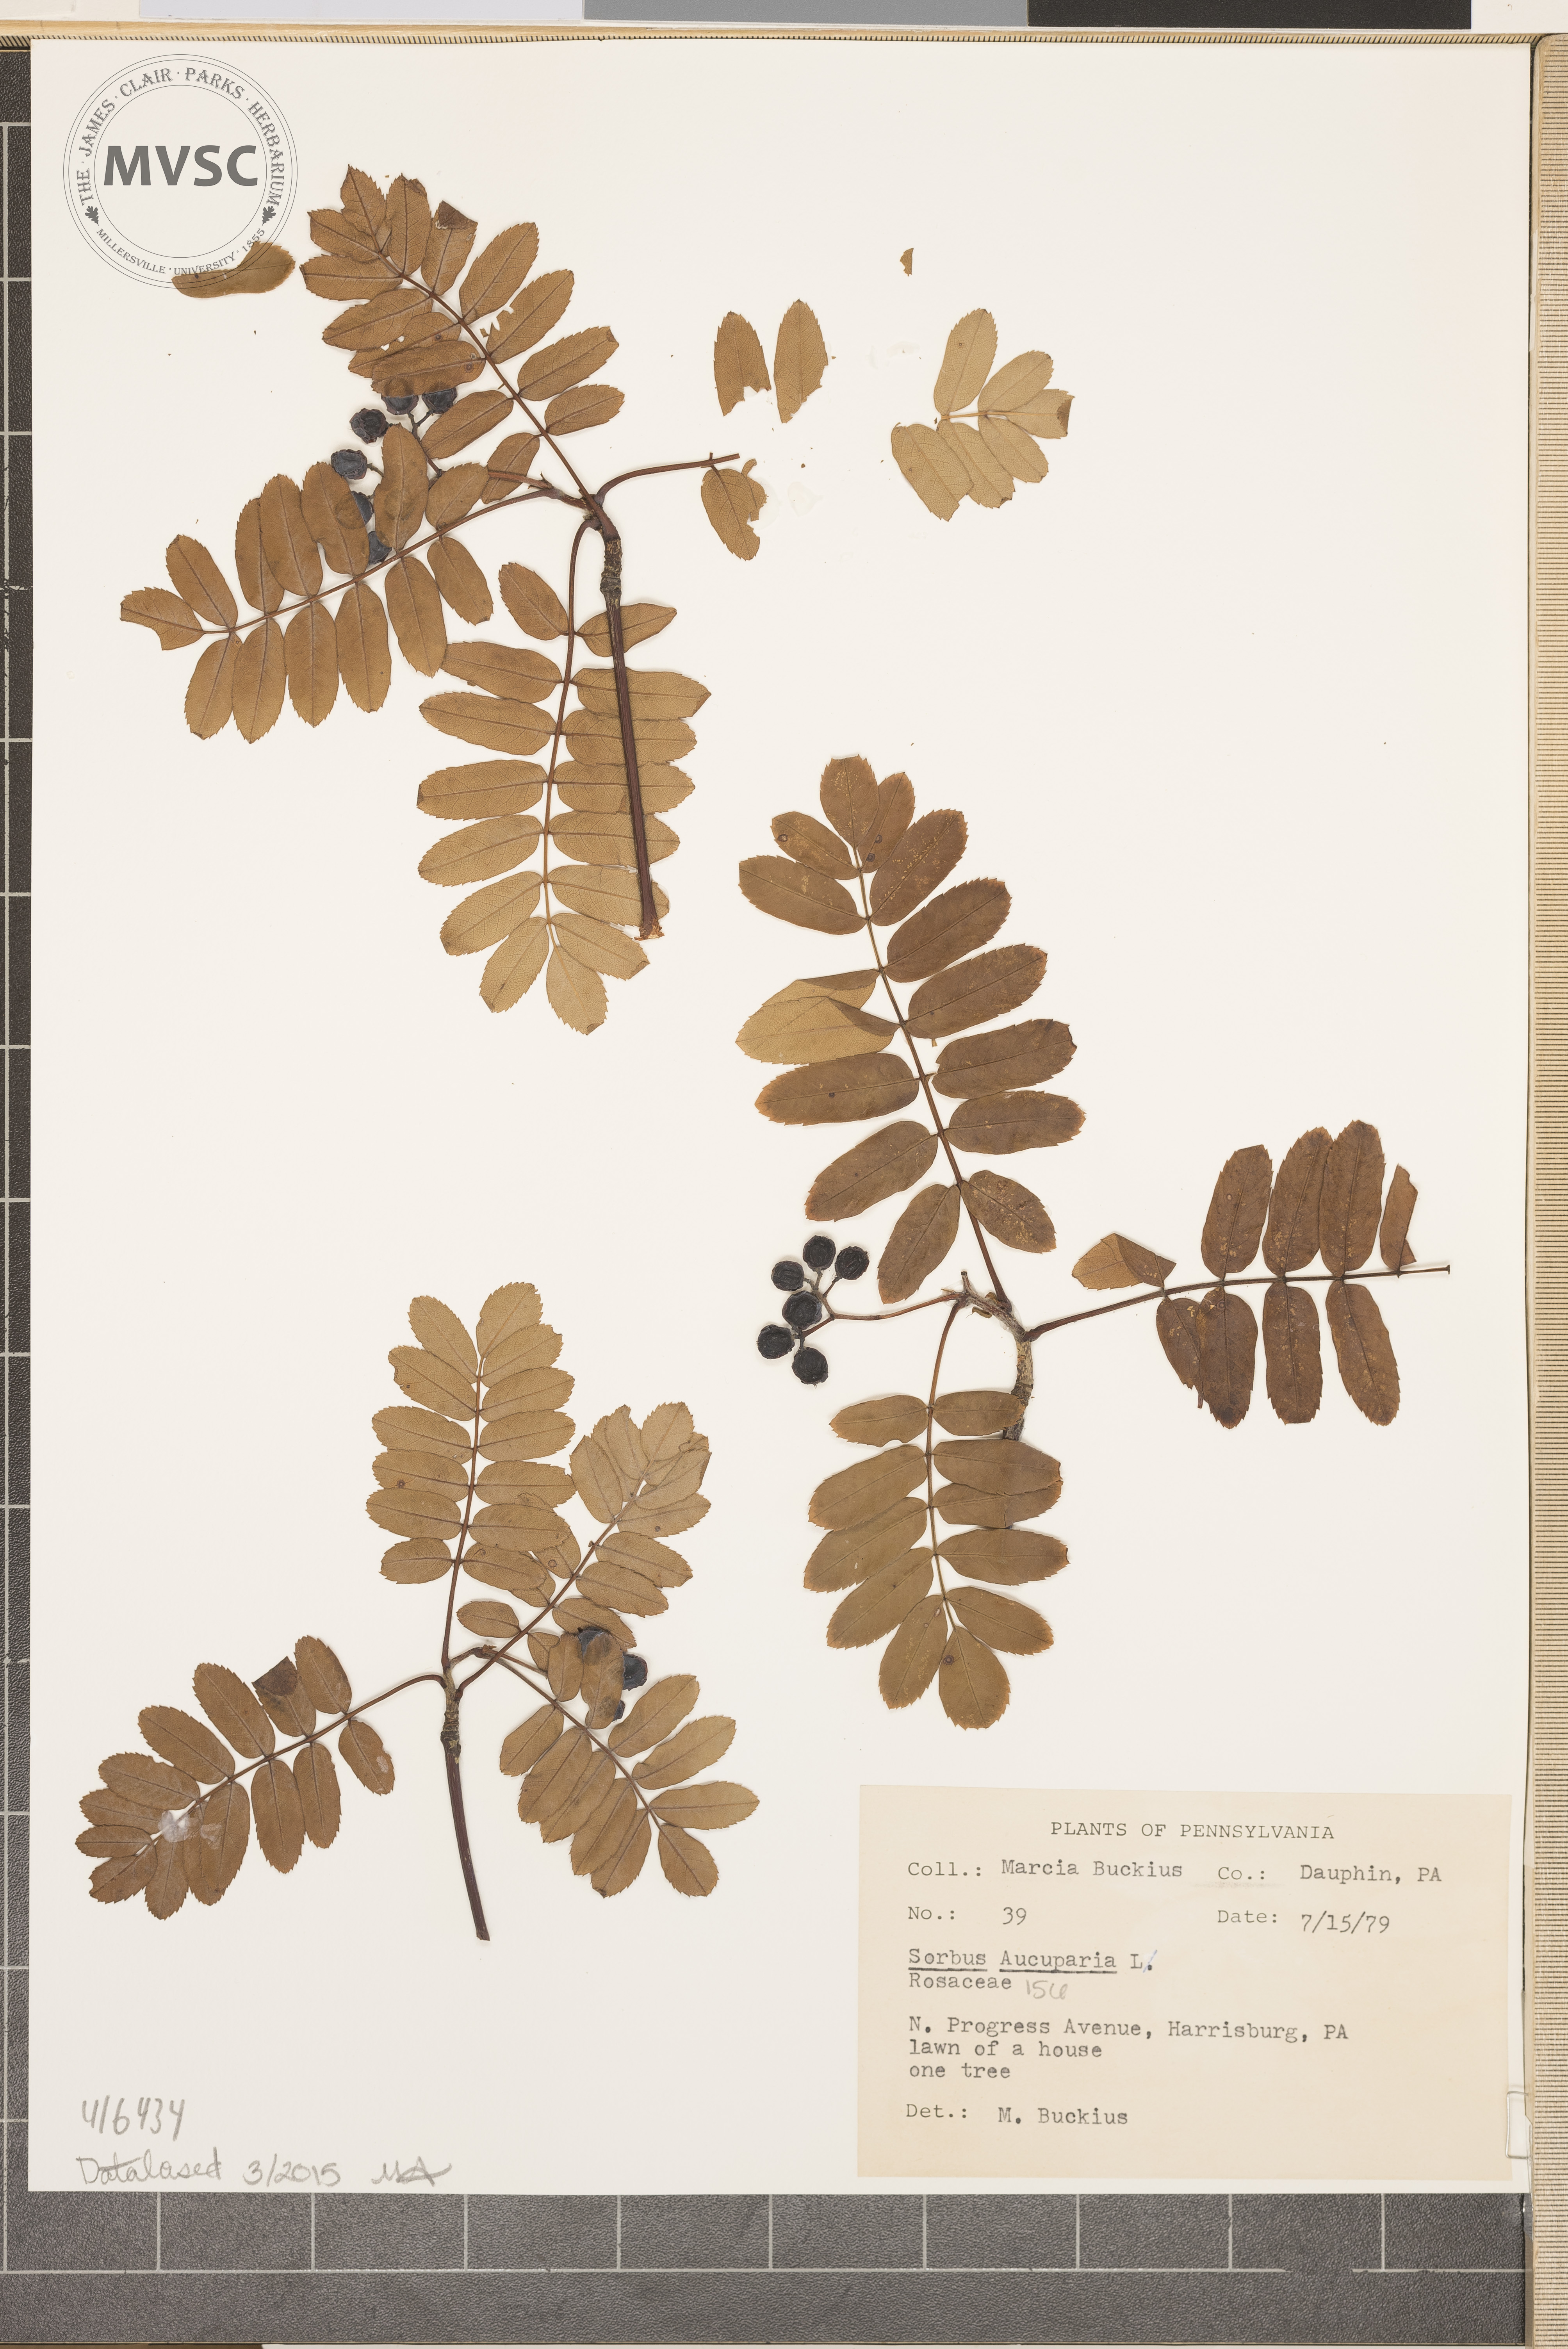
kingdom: Plantae
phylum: Tracheophyta
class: Magnoliopsida
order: Rosales
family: Rosaceae
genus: Sorbus
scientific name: Sorbus aucuparia
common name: Rowan
